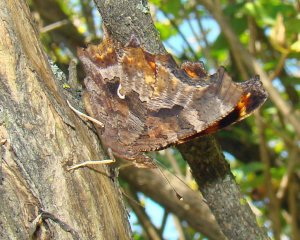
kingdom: Animalia
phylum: Arthropoda
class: Insecta
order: Lepidoptera
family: Nymphalidae
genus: Polygonia
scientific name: Polygonia comma
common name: Eastern Comma
